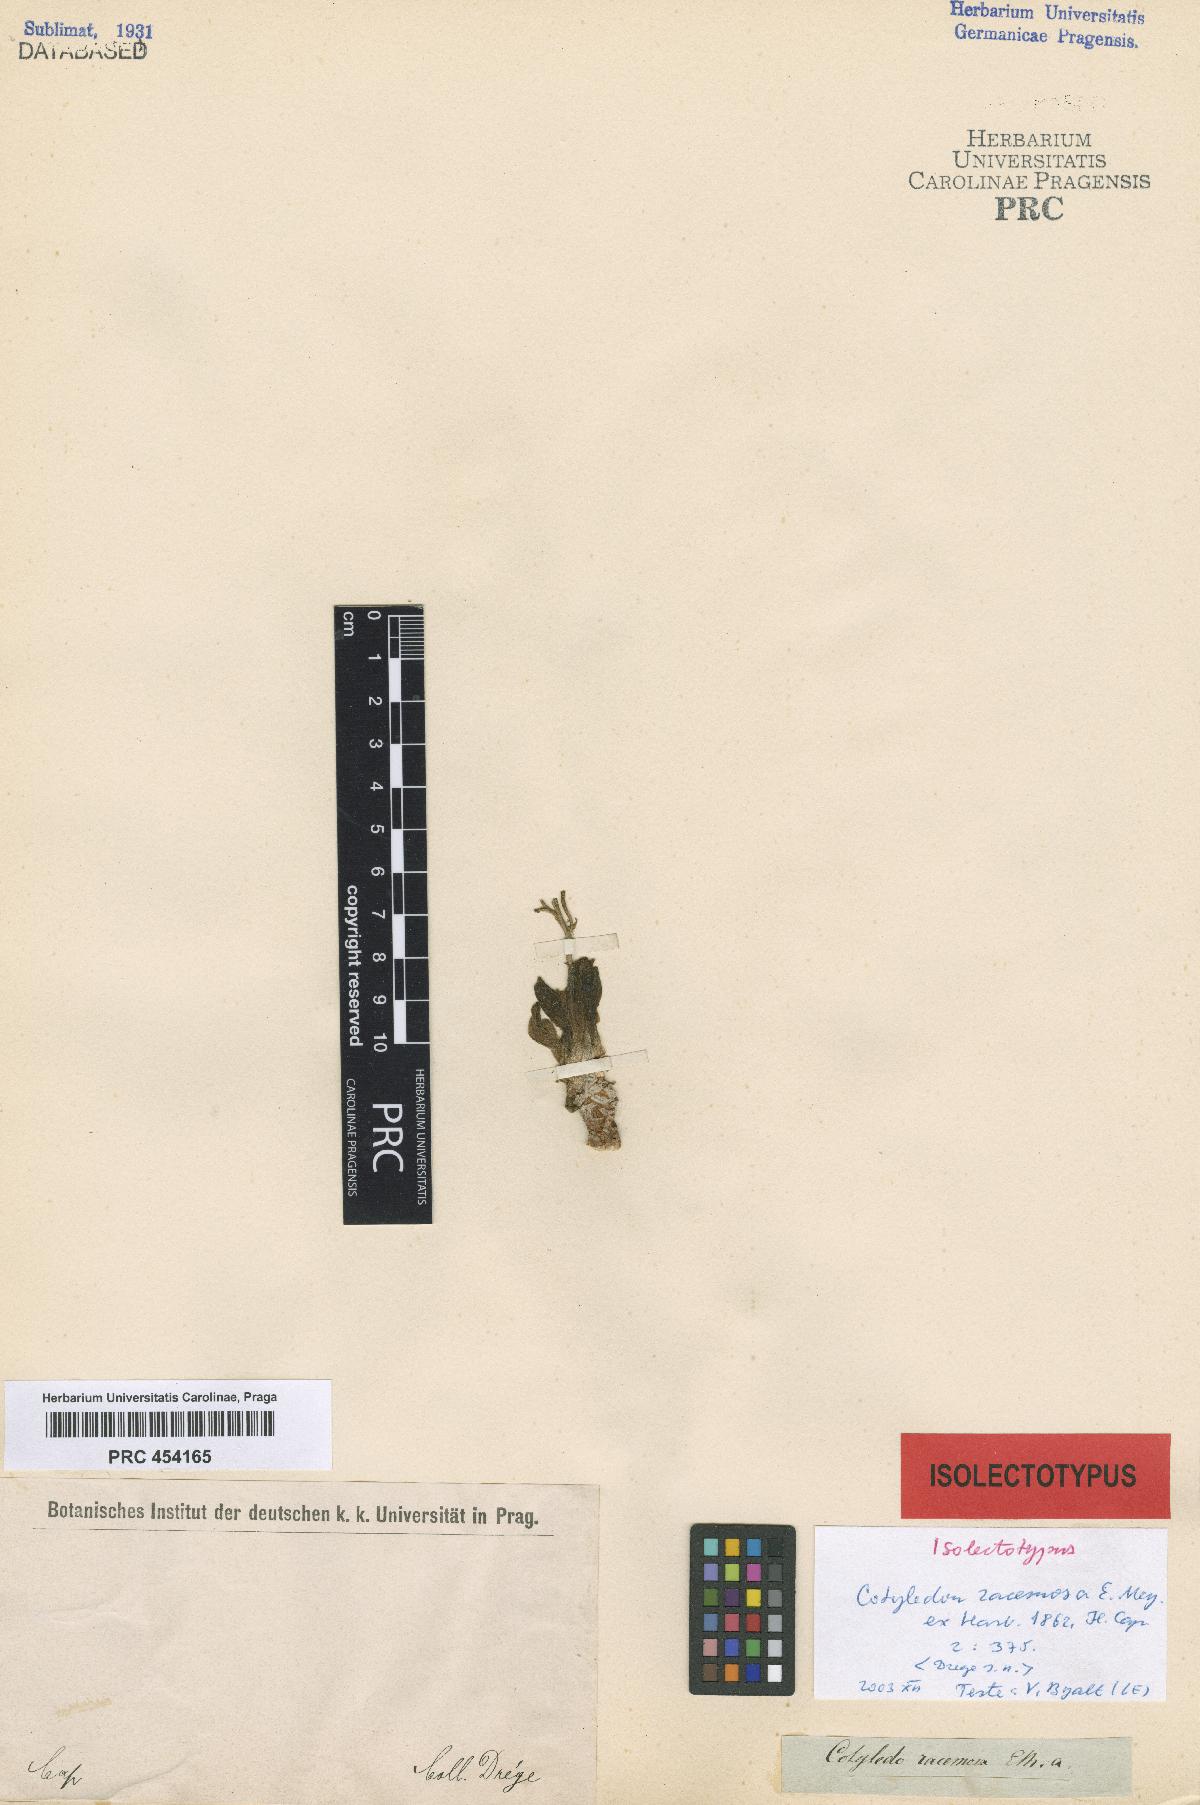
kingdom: Plantae
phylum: Tracheophyta
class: Magnoliopsida
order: Saxifragales
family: Crassulaceae
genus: Tylecodon
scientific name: Tylecodon racemosus
